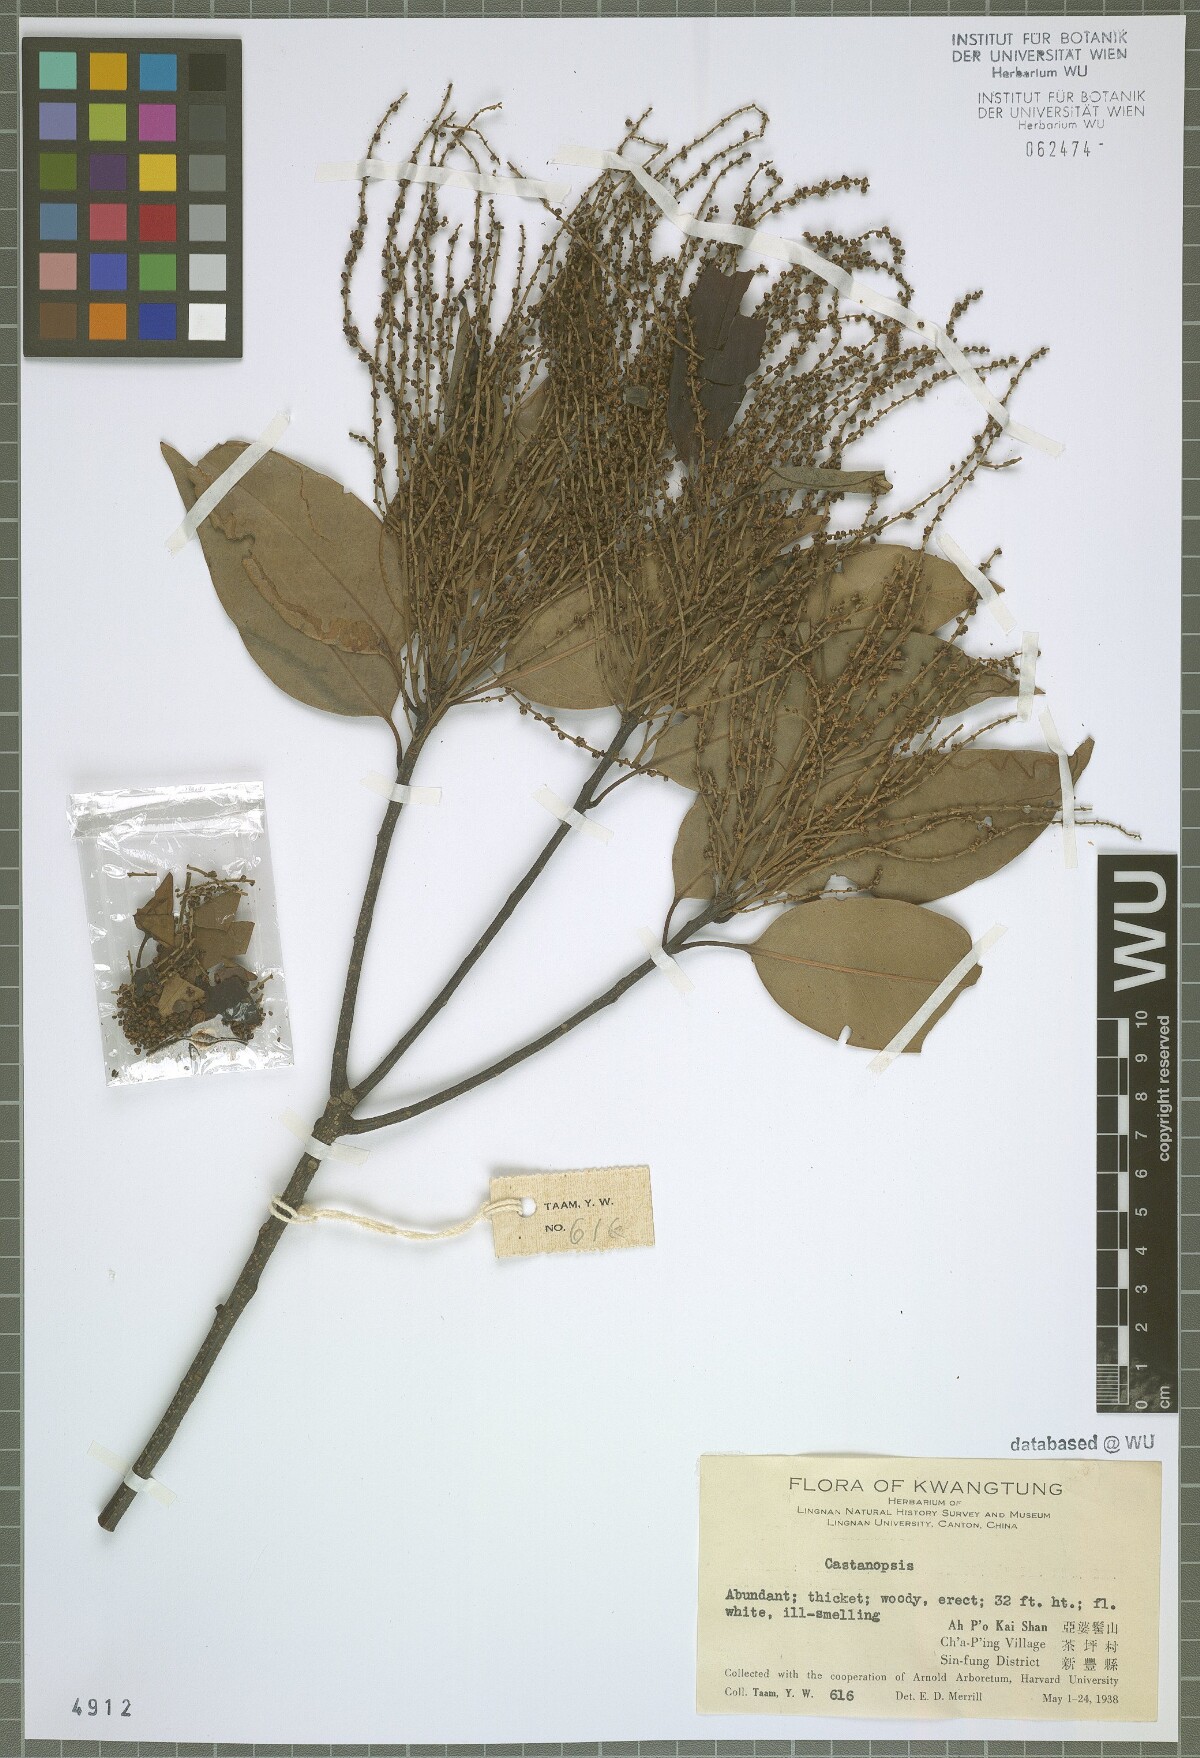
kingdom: Plantae
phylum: Tracheophyta
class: Magnoliopsida
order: Fagales
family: Fagaceae
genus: Castanopsis
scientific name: Castanopsis
